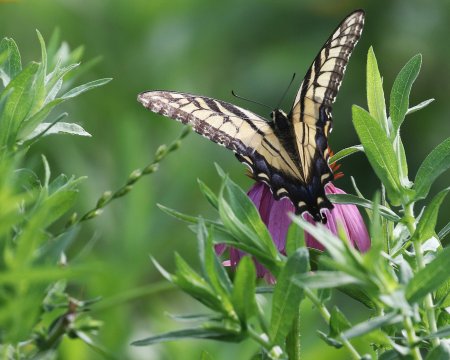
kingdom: Animalia
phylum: Arthropoda
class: Insecta
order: Lepidoptera
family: Papilionidae
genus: Pterourus
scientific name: Pterourus glaucus
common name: Eastern Tiger Swallowtail
